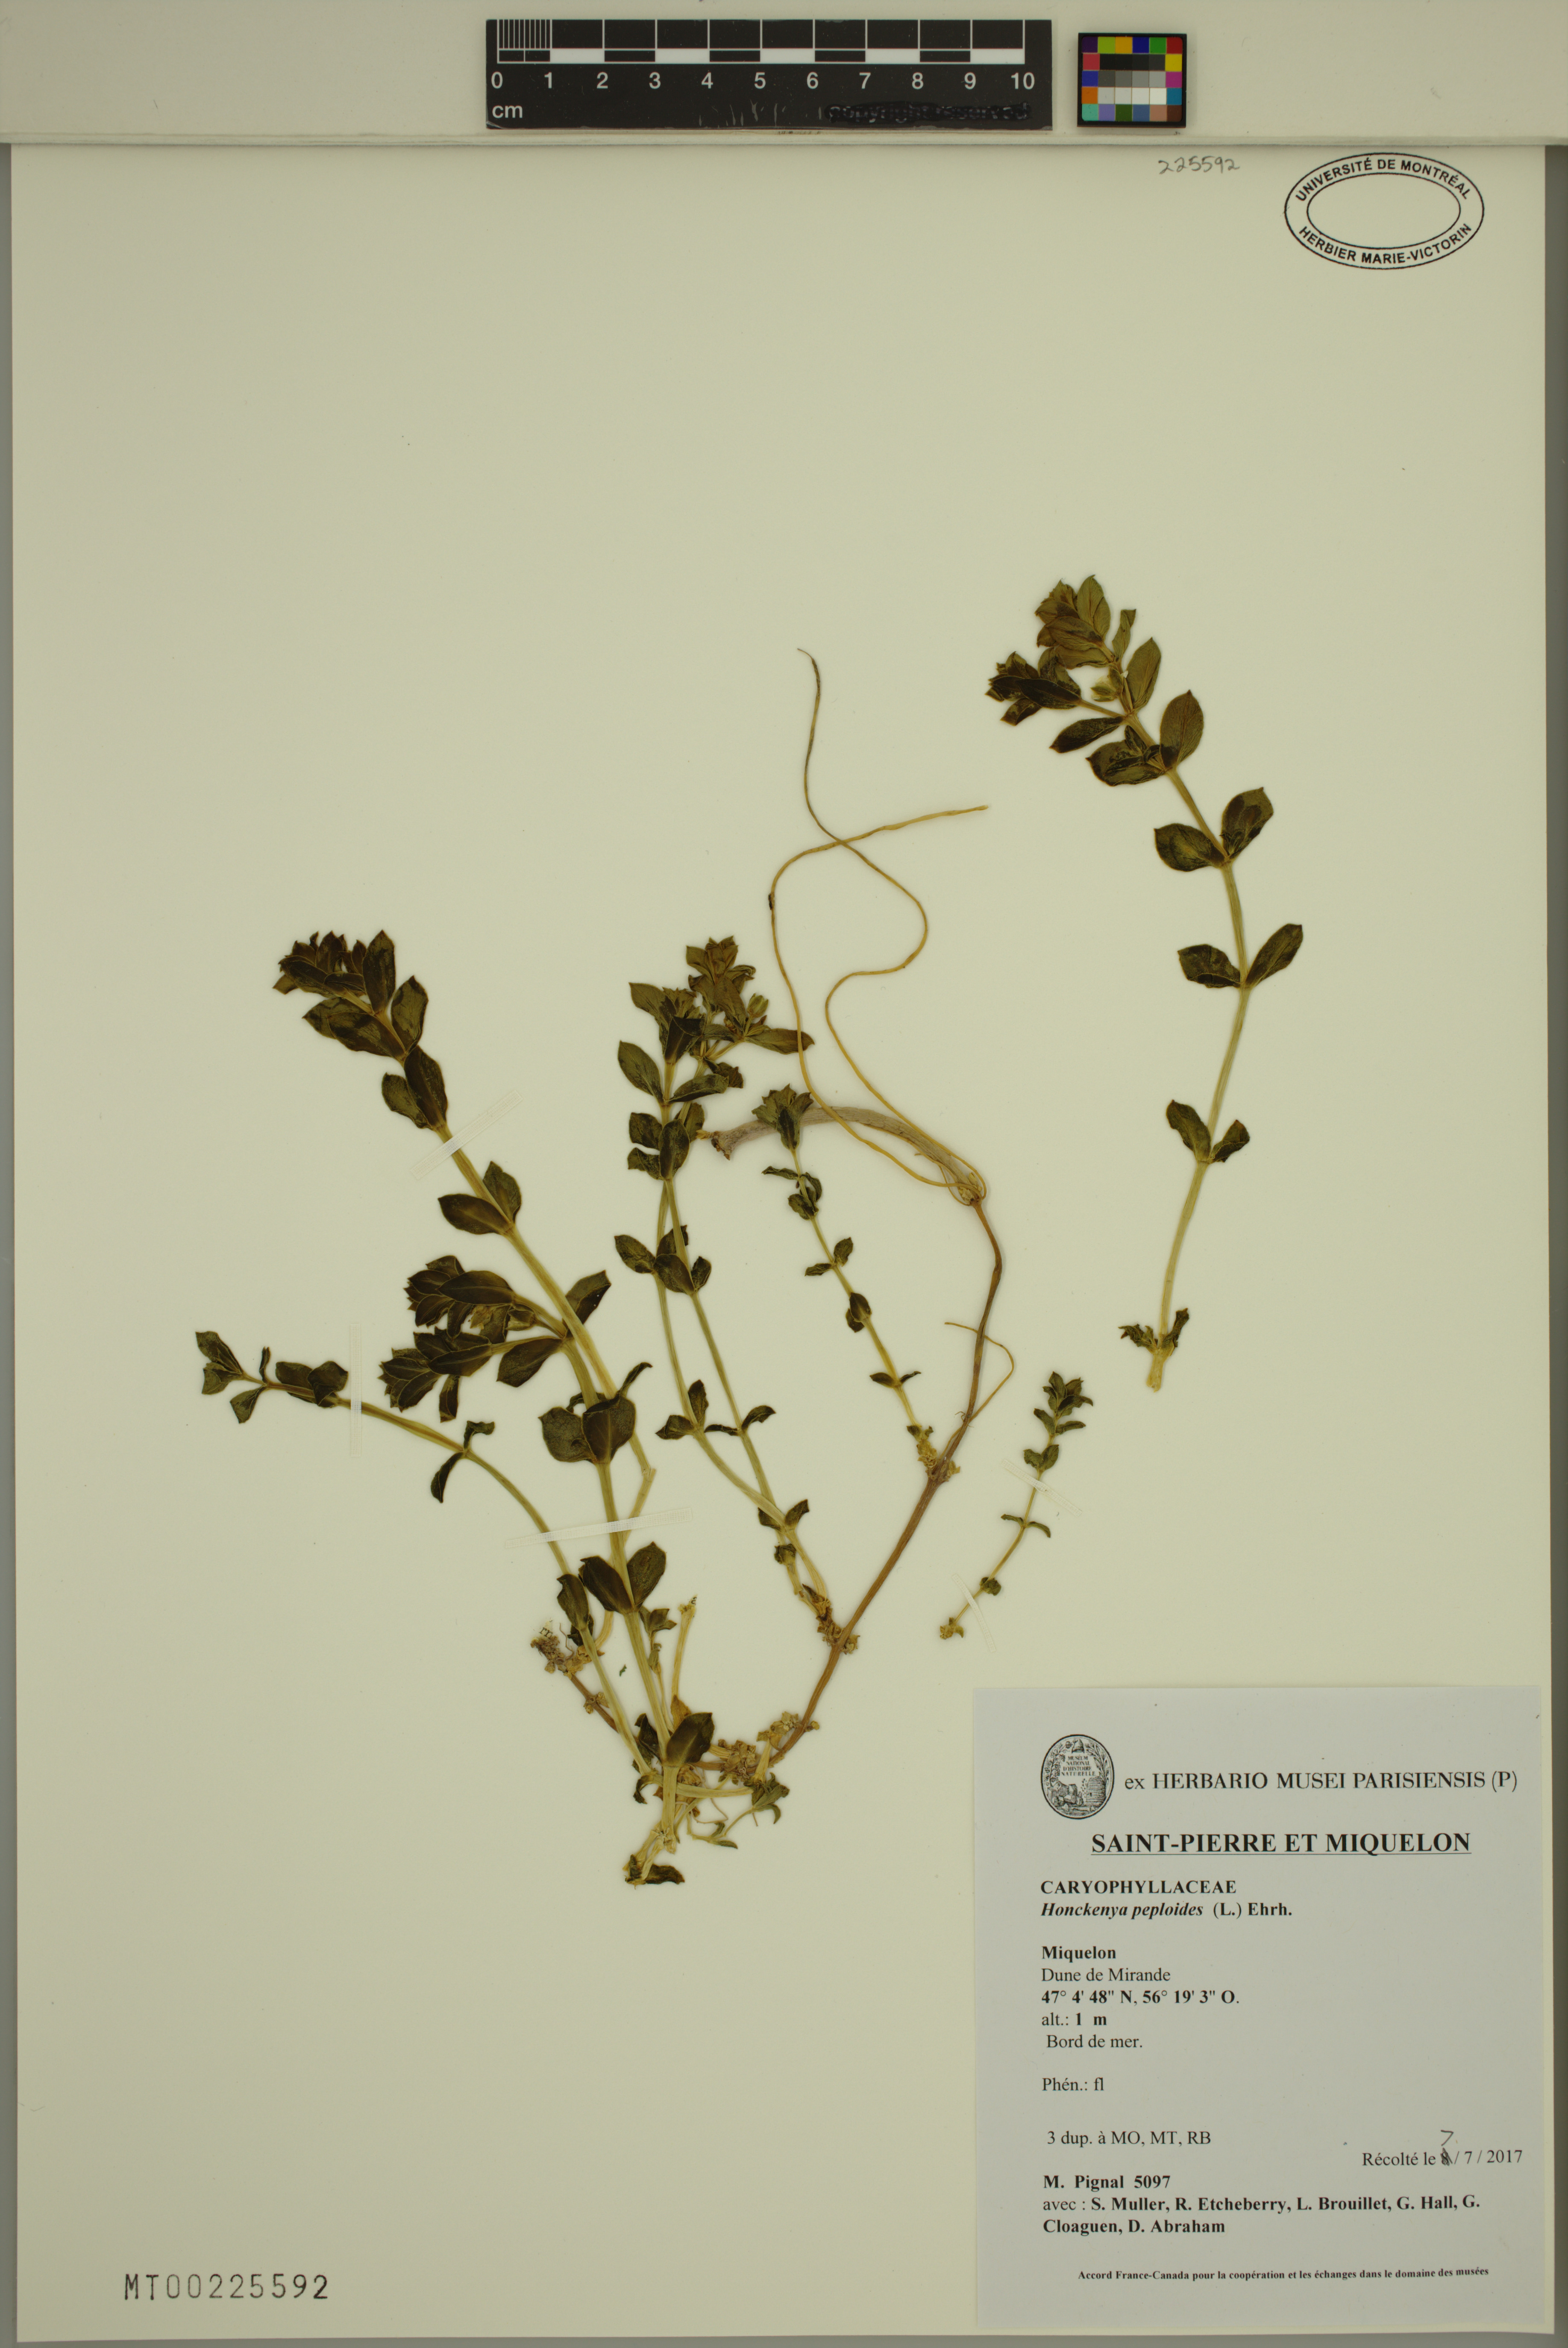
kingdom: Plantae
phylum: Tracheophyta
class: Magnoliopsida
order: Caryophyllales
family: Caryophyllaceae
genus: Honckenya
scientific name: Honckenya peploides
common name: Sea sandwort
